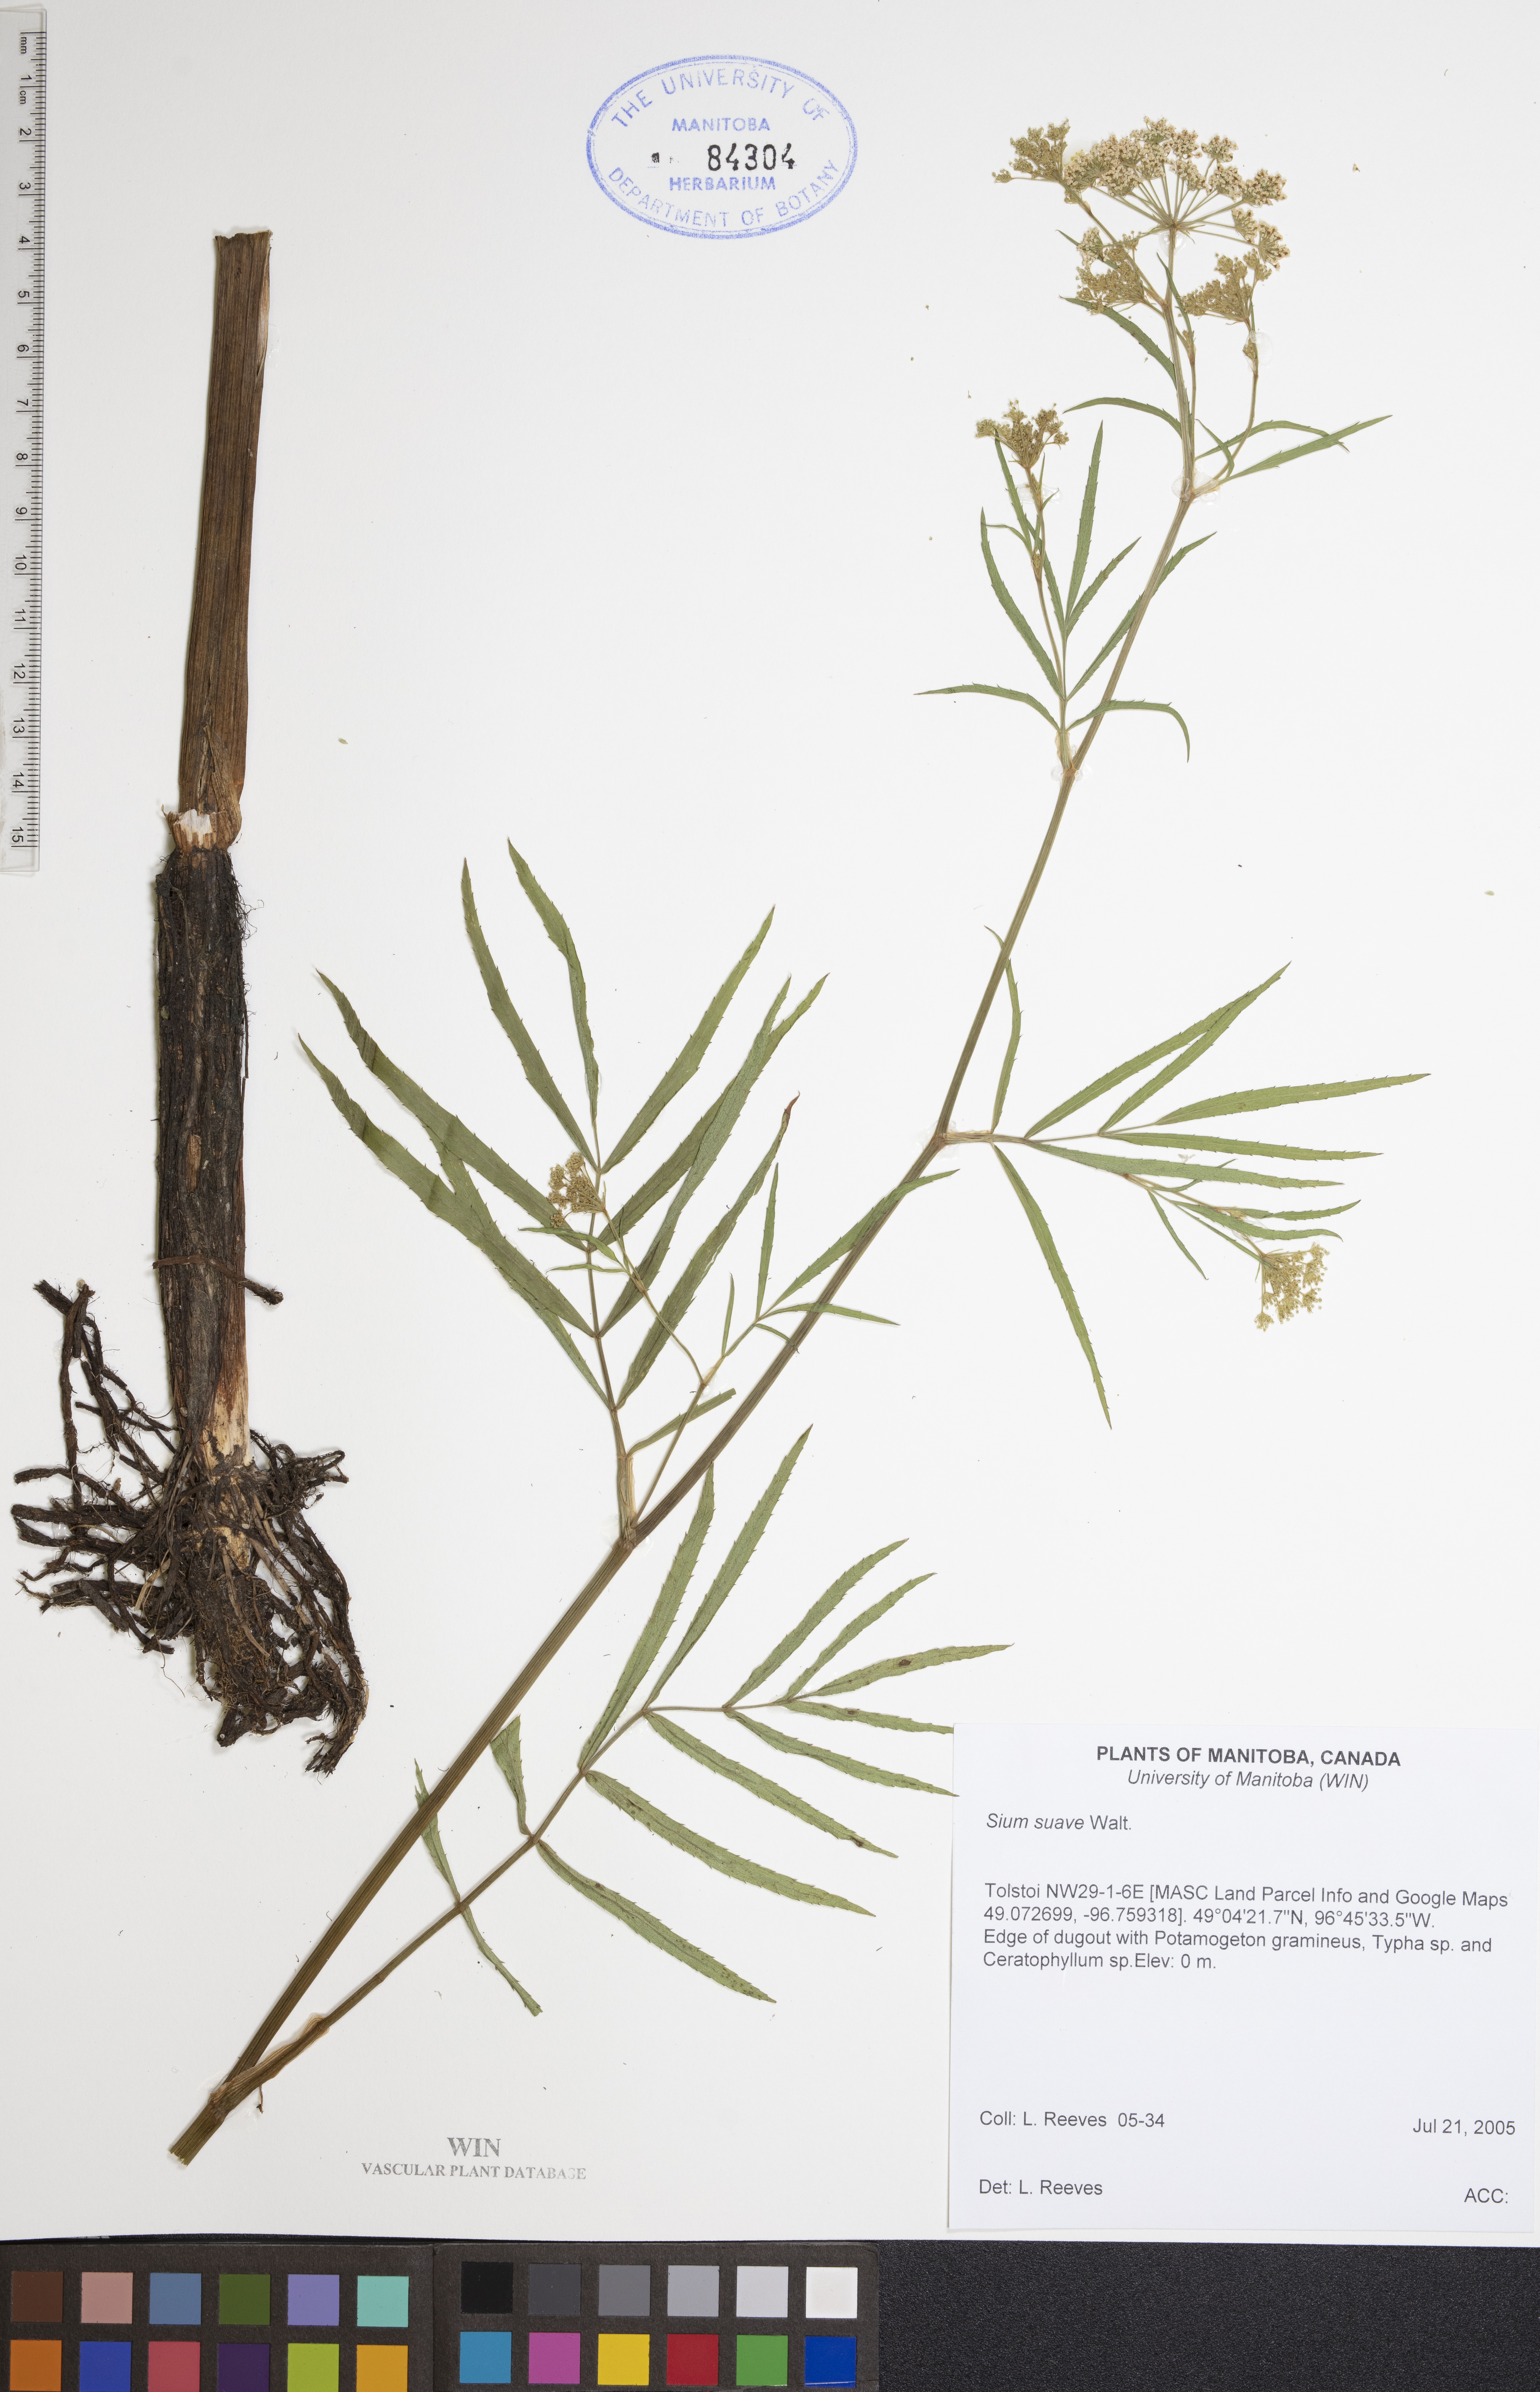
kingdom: Plantae
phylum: Tracheophyta
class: Magnoliopsida
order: Apiales
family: Apiaceae
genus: Sium
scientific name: Sium suave
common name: Hemlock water-parsnip
